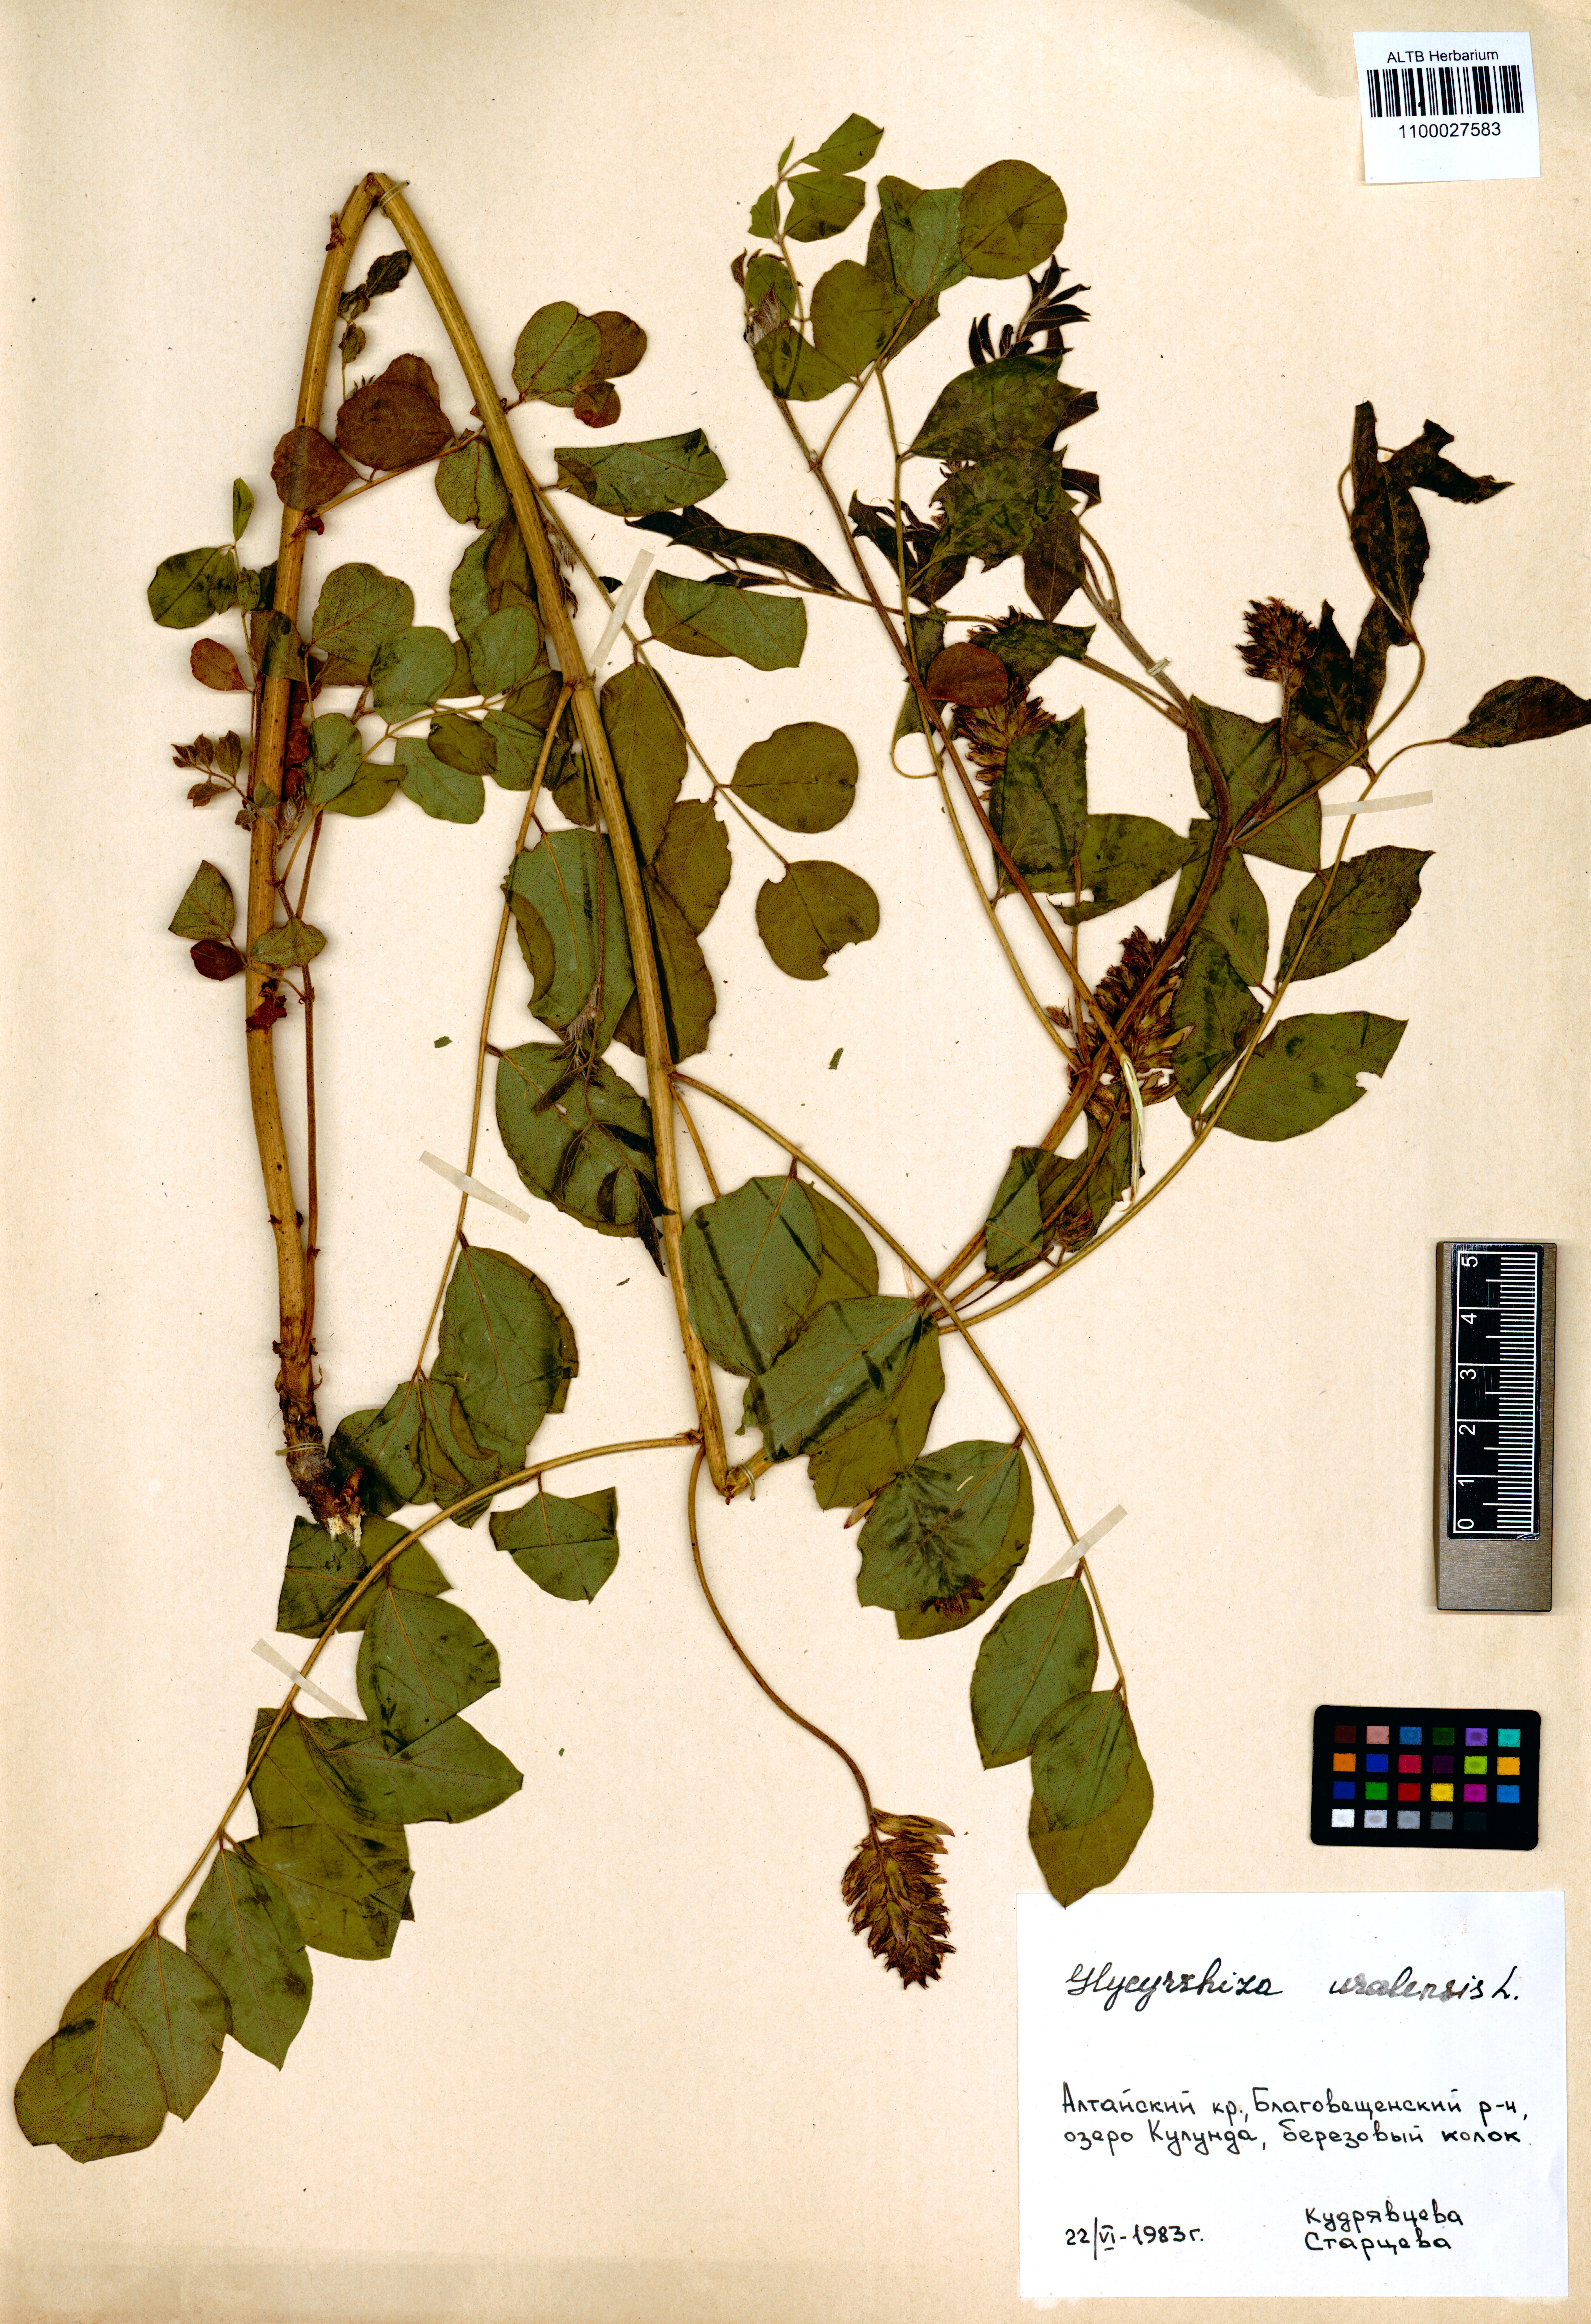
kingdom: Plantae
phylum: Tracheophyta
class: Magnoliopsida
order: Fabales
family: Fabaceae
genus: Glycyrrhiza
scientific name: Glycyrrhiza uralensis
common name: Chinese licorice
